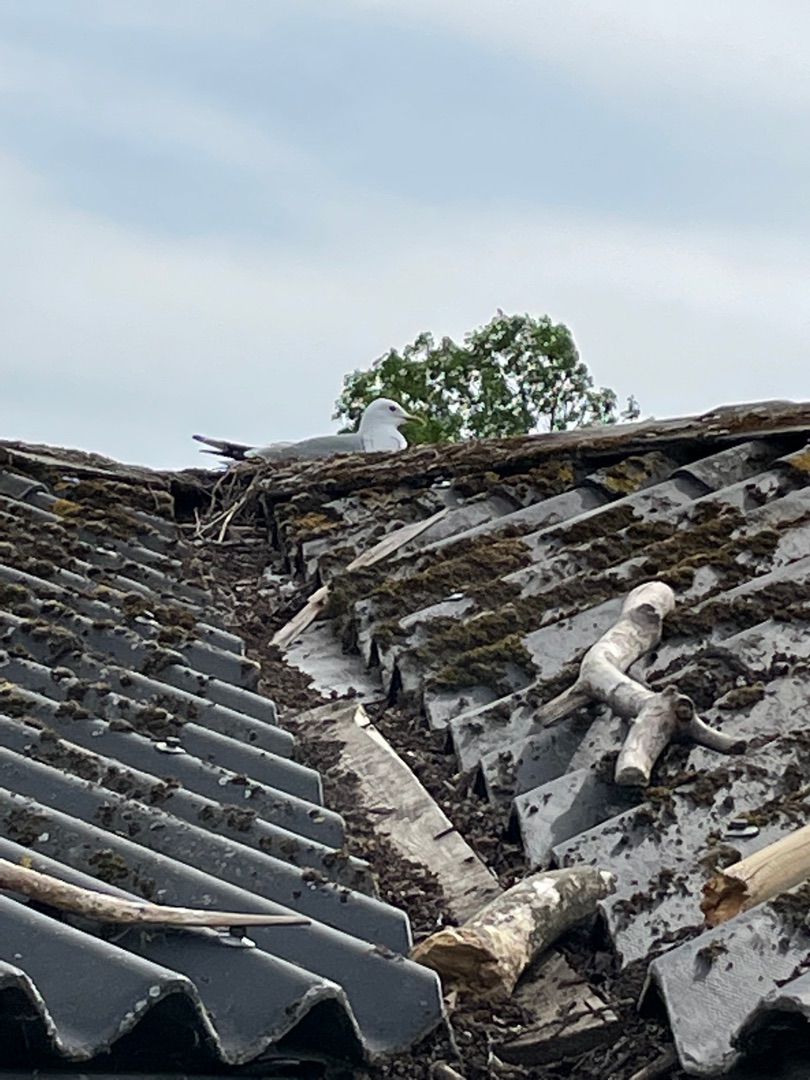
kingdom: Animalia
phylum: Chordata
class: Aves
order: Charadriiformes
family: Laridae
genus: Larus
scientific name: Larus canus
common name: Stormmåge
